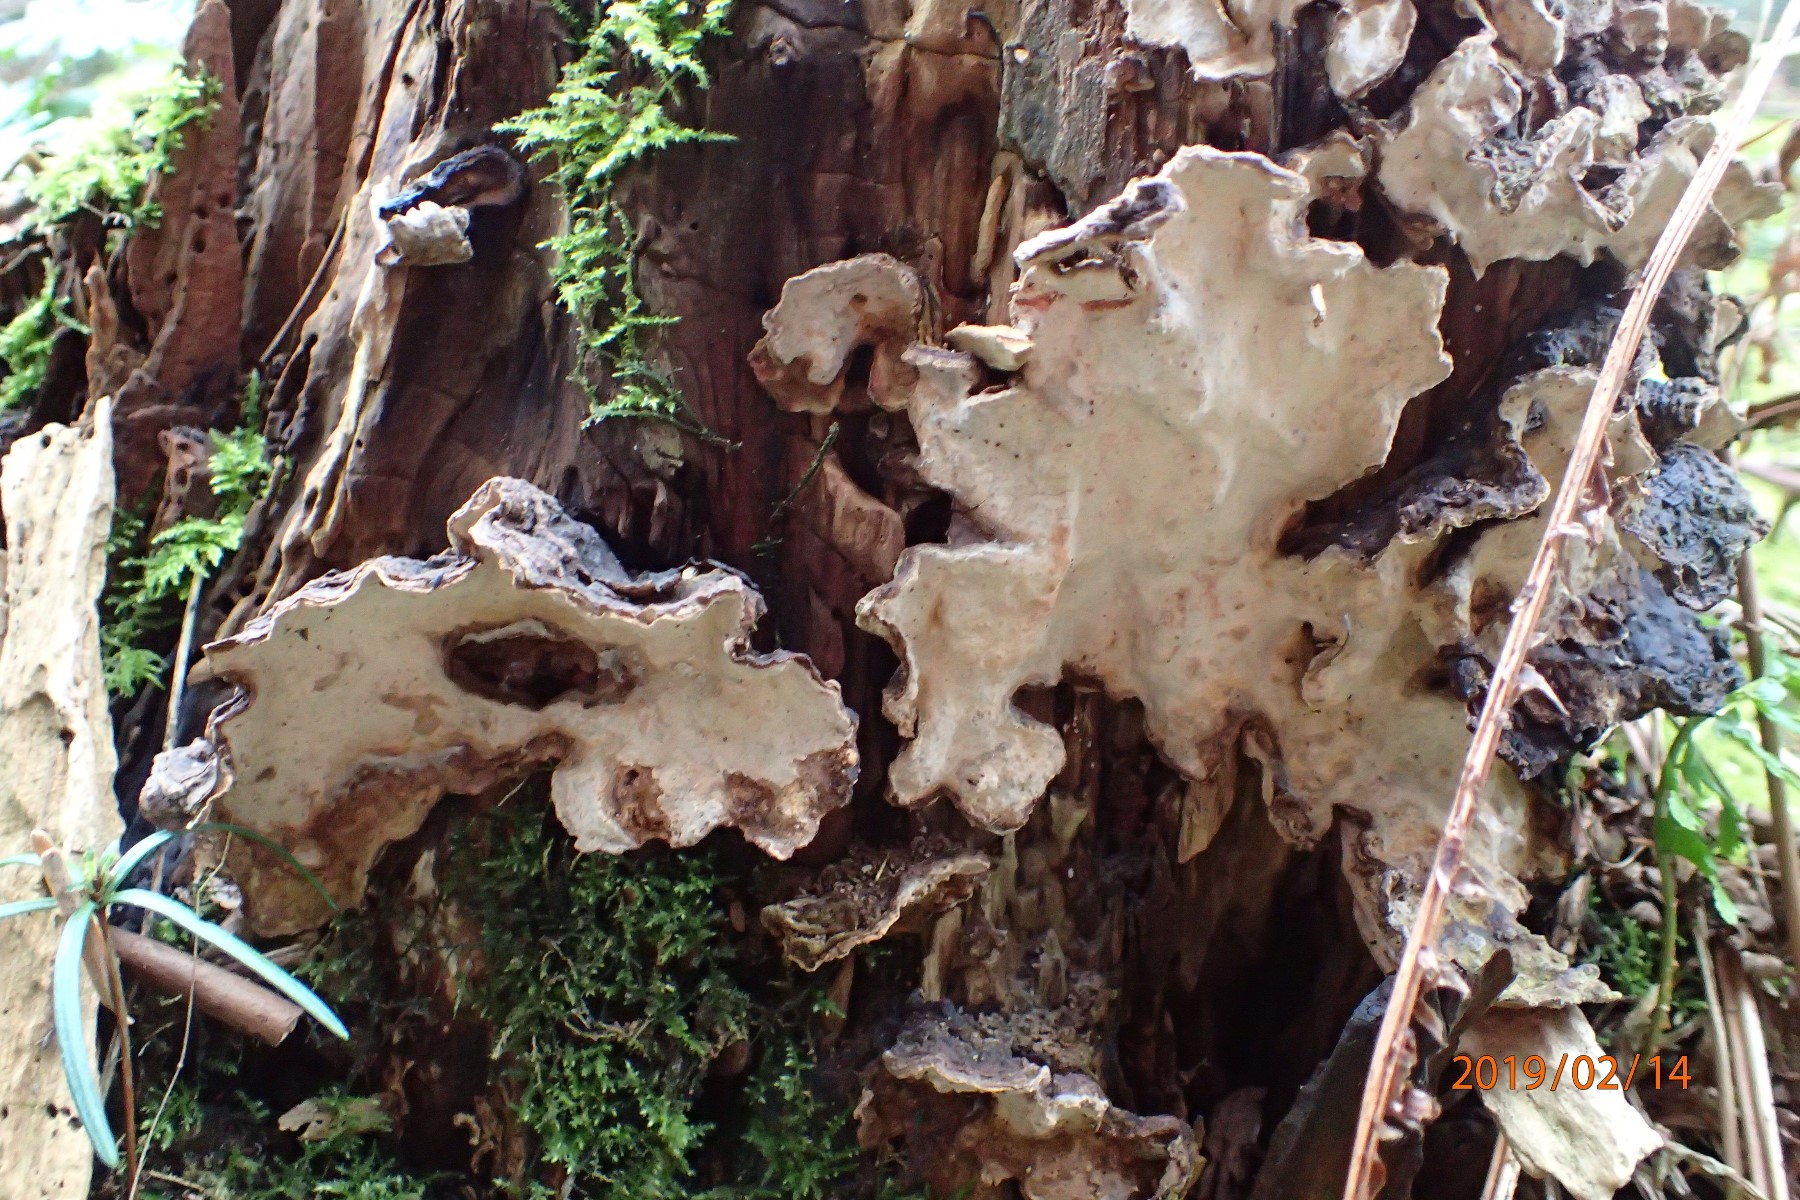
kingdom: Fungi
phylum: Basidiomycota
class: Agaricomycetes
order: Russulales
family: Stereaceae
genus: Stereum
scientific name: Stereum rugosum
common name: rynket lædersvamp
